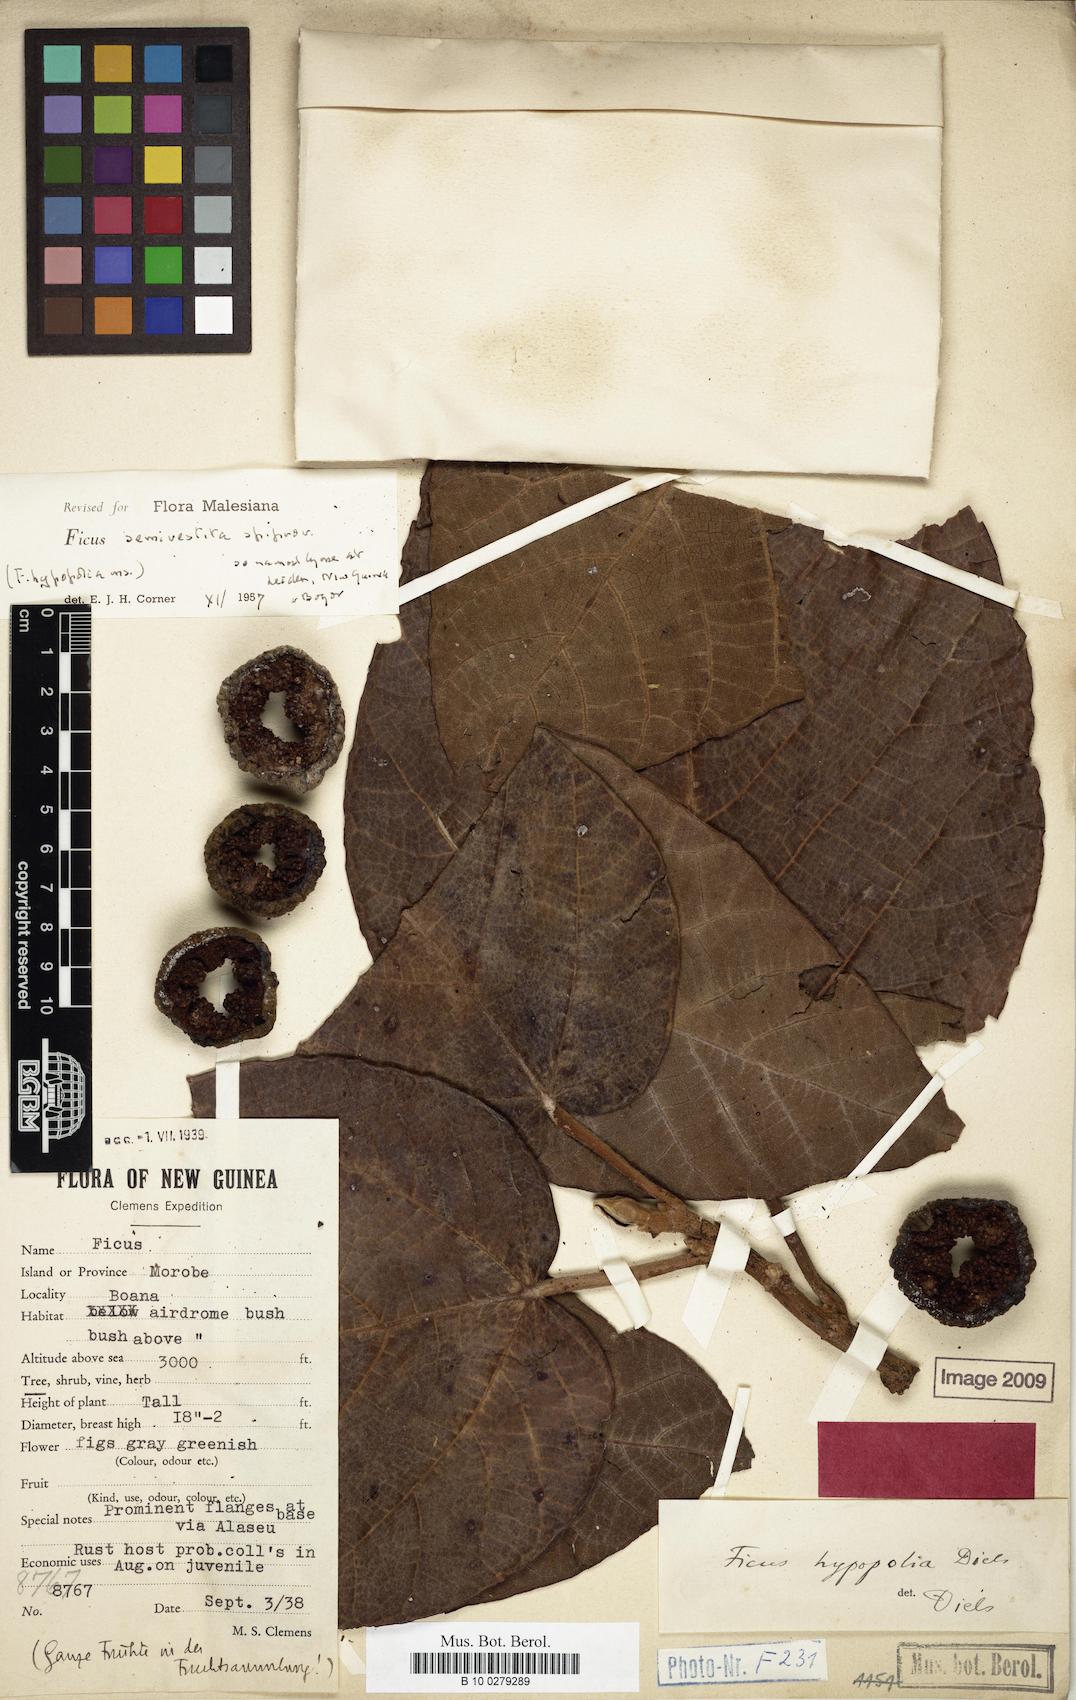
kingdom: Plantae
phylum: Tracheophyta
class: Magnoliopsida
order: Rosales
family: Moraceae
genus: Ficus
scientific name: Ficus semivestita
